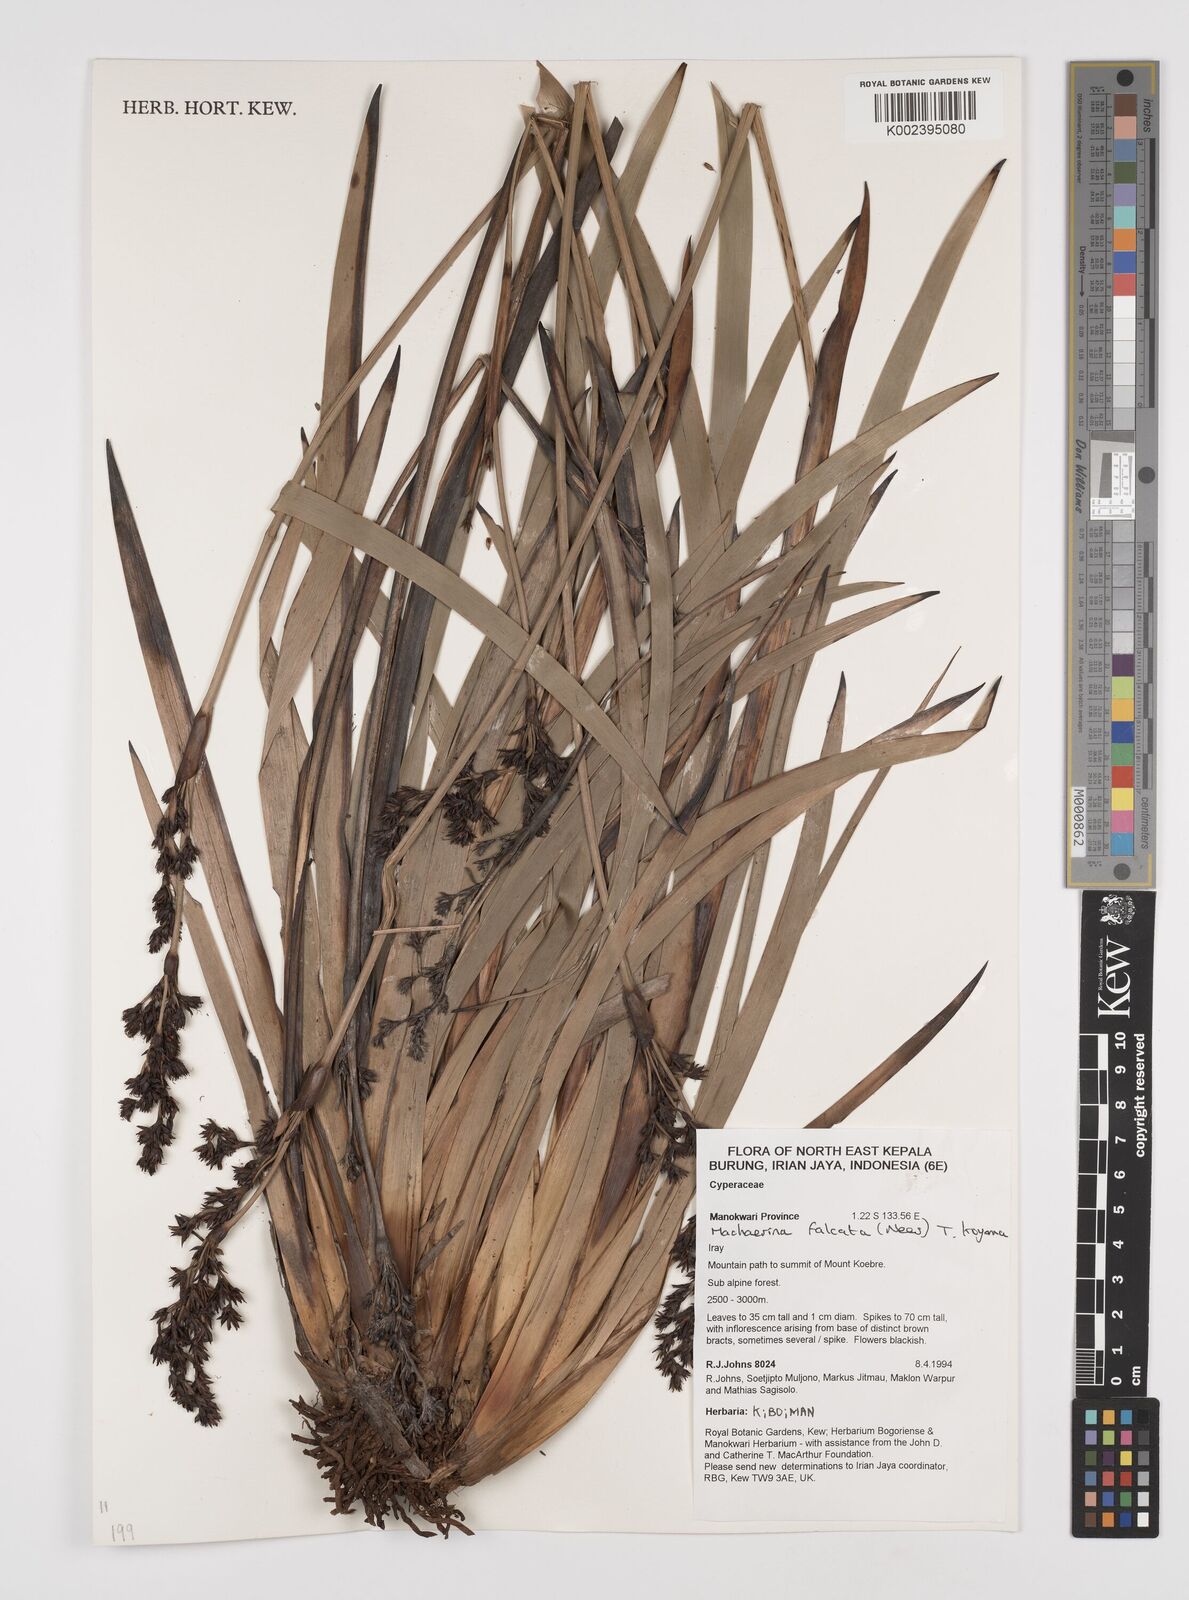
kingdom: Plantae
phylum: Tracheophyta
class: Liliopsida
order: Poales
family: Cyperaceae
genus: Machaerina
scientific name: Machaerina falcata
